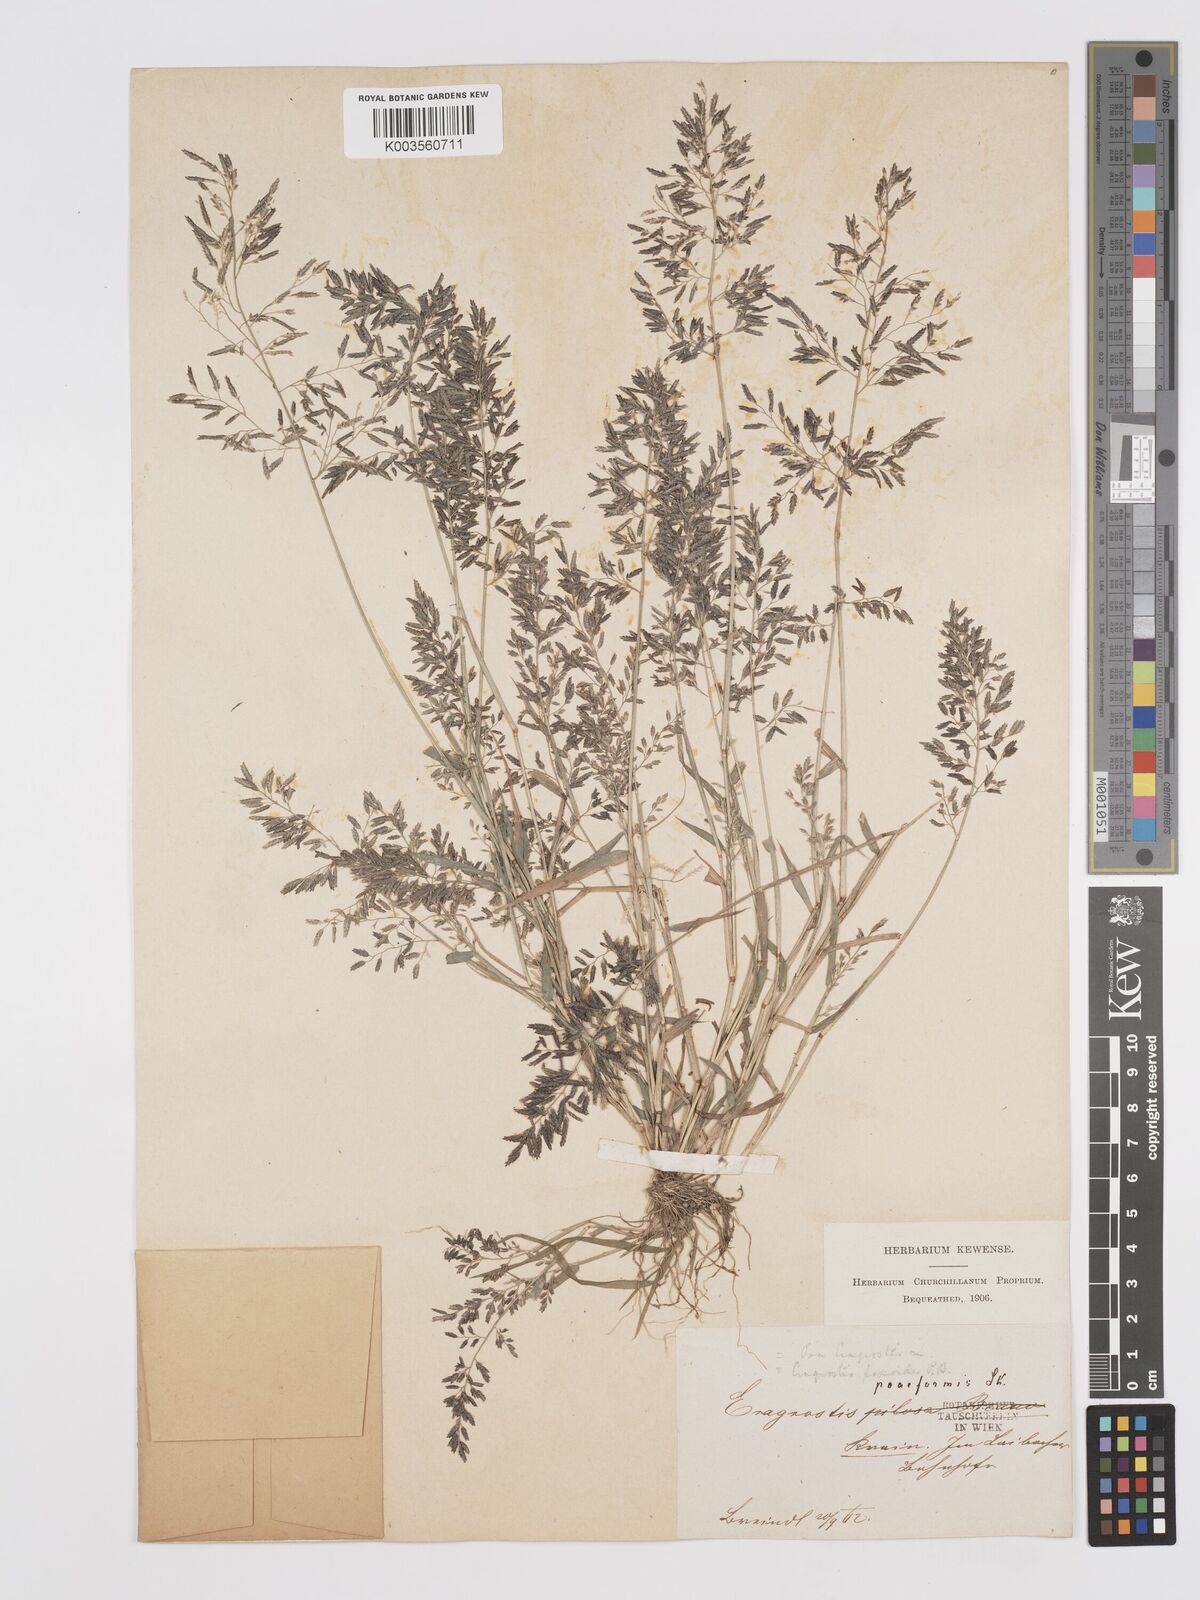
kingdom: Plantae
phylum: Tracheophyta
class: Liliopsida
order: Poales
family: Poaceae
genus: Eragrostis
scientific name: Eragrostis minor
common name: Small love-grass
